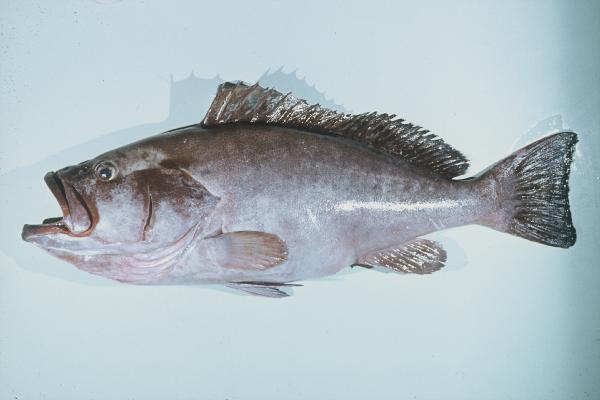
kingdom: Animalia
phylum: Chordata
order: Perciformes
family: Serranidae
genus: Epinephelus
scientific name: Epinephelus undulosus
